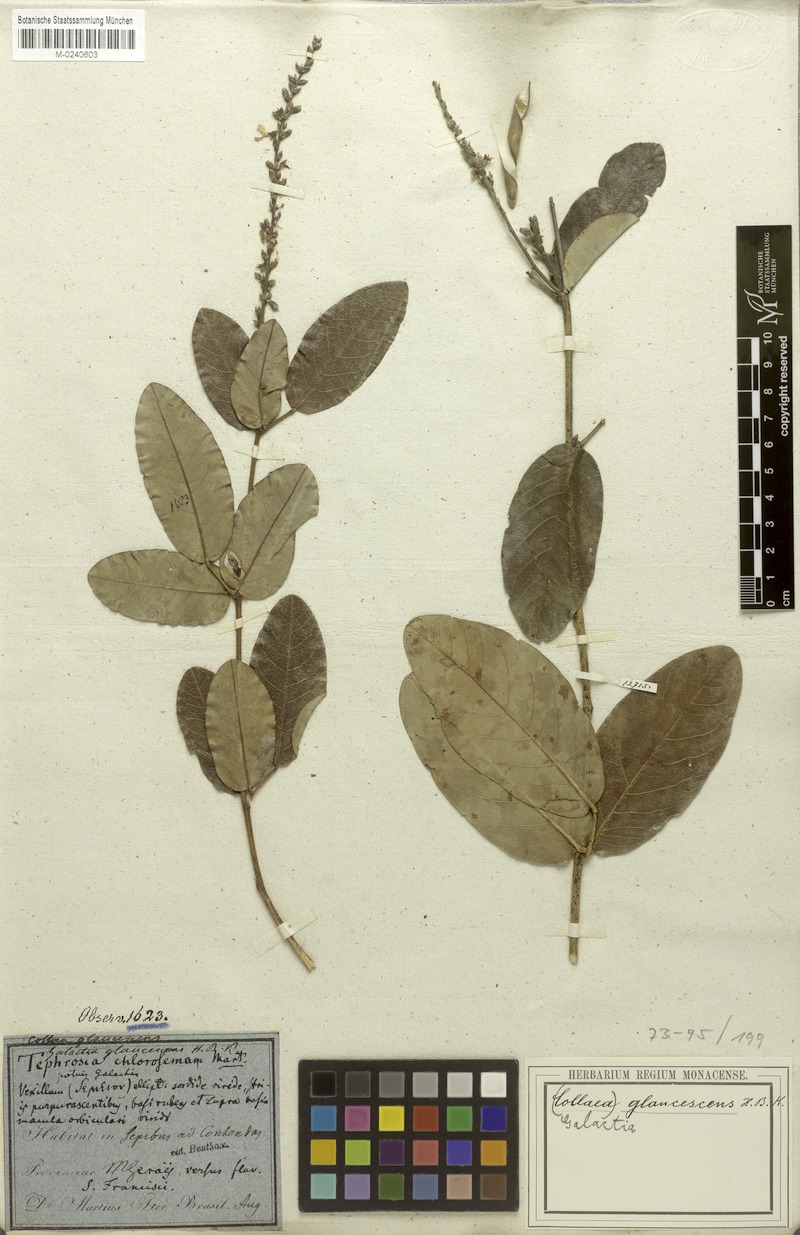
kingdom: Plantae
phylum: Tracheophyta
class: Magnoliopsida
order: Fabales
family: Fabaceae
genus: Galactia
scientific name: Galactia glaucescens
